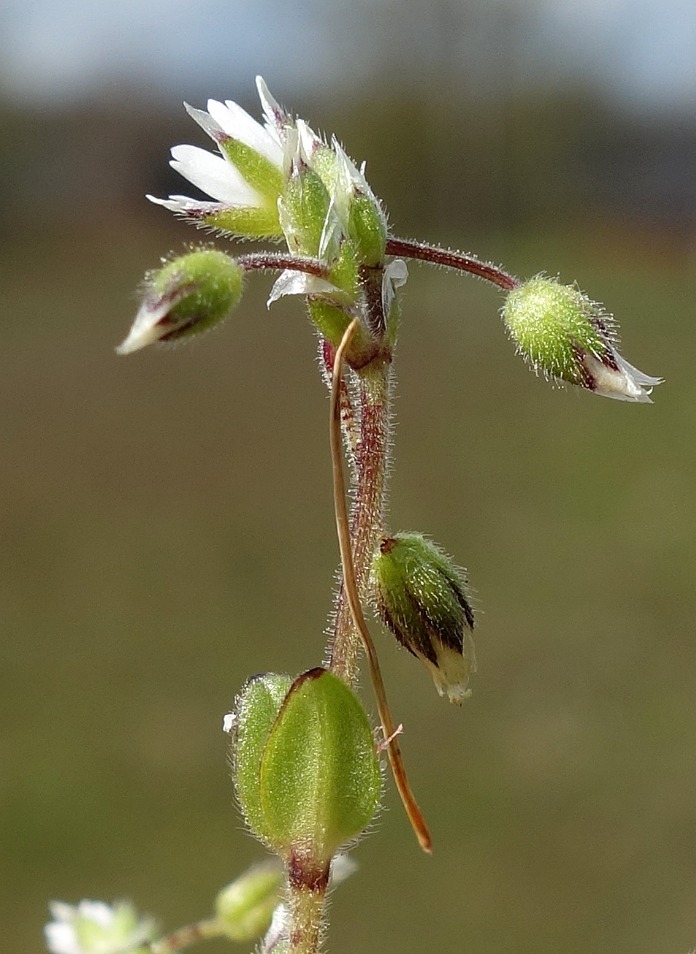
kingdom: Plantae
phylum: Tracheophyta
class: Magnoliopsida
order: Caryophyllales
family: Caryophyllaceae
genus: Cerastium
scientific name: Cerastium semidecandrum
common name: Femhannet hønsetarm
